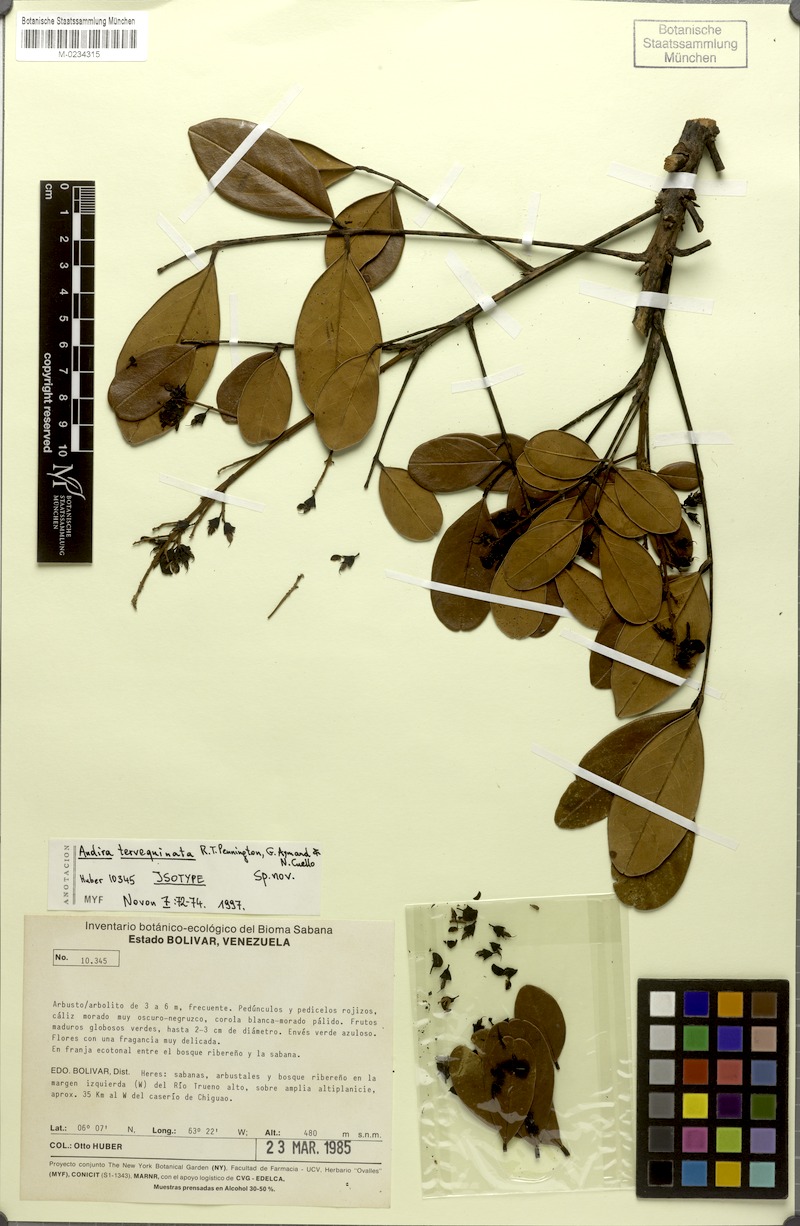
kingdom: Plantae
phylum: Tracheophyta
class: Magnoliopsida
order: Fabales
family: Fabaceae
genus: Andira
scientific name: Andira tervequinata
